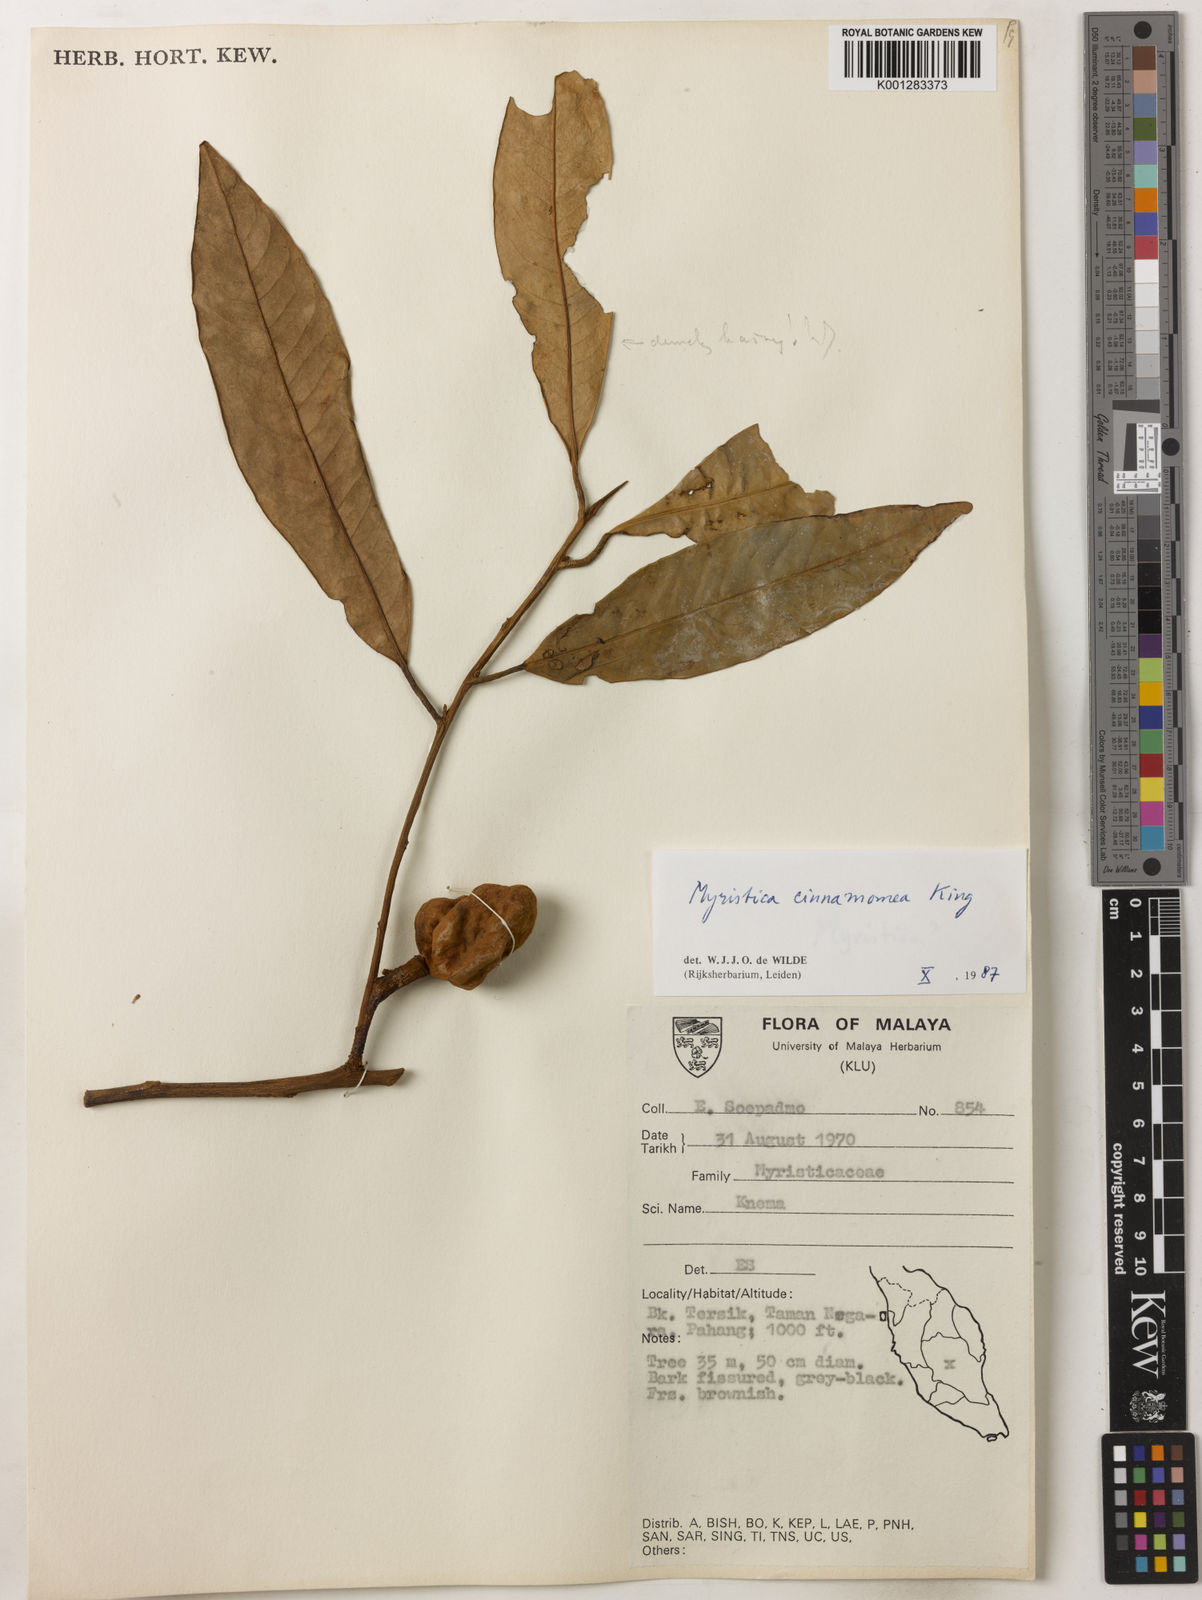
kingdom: Plantae
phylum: Tracheophyta
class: Magnoliopsida
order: Magnoliales
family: Myristicaceae
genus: Myristica
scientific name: Myristica cinnamomea
